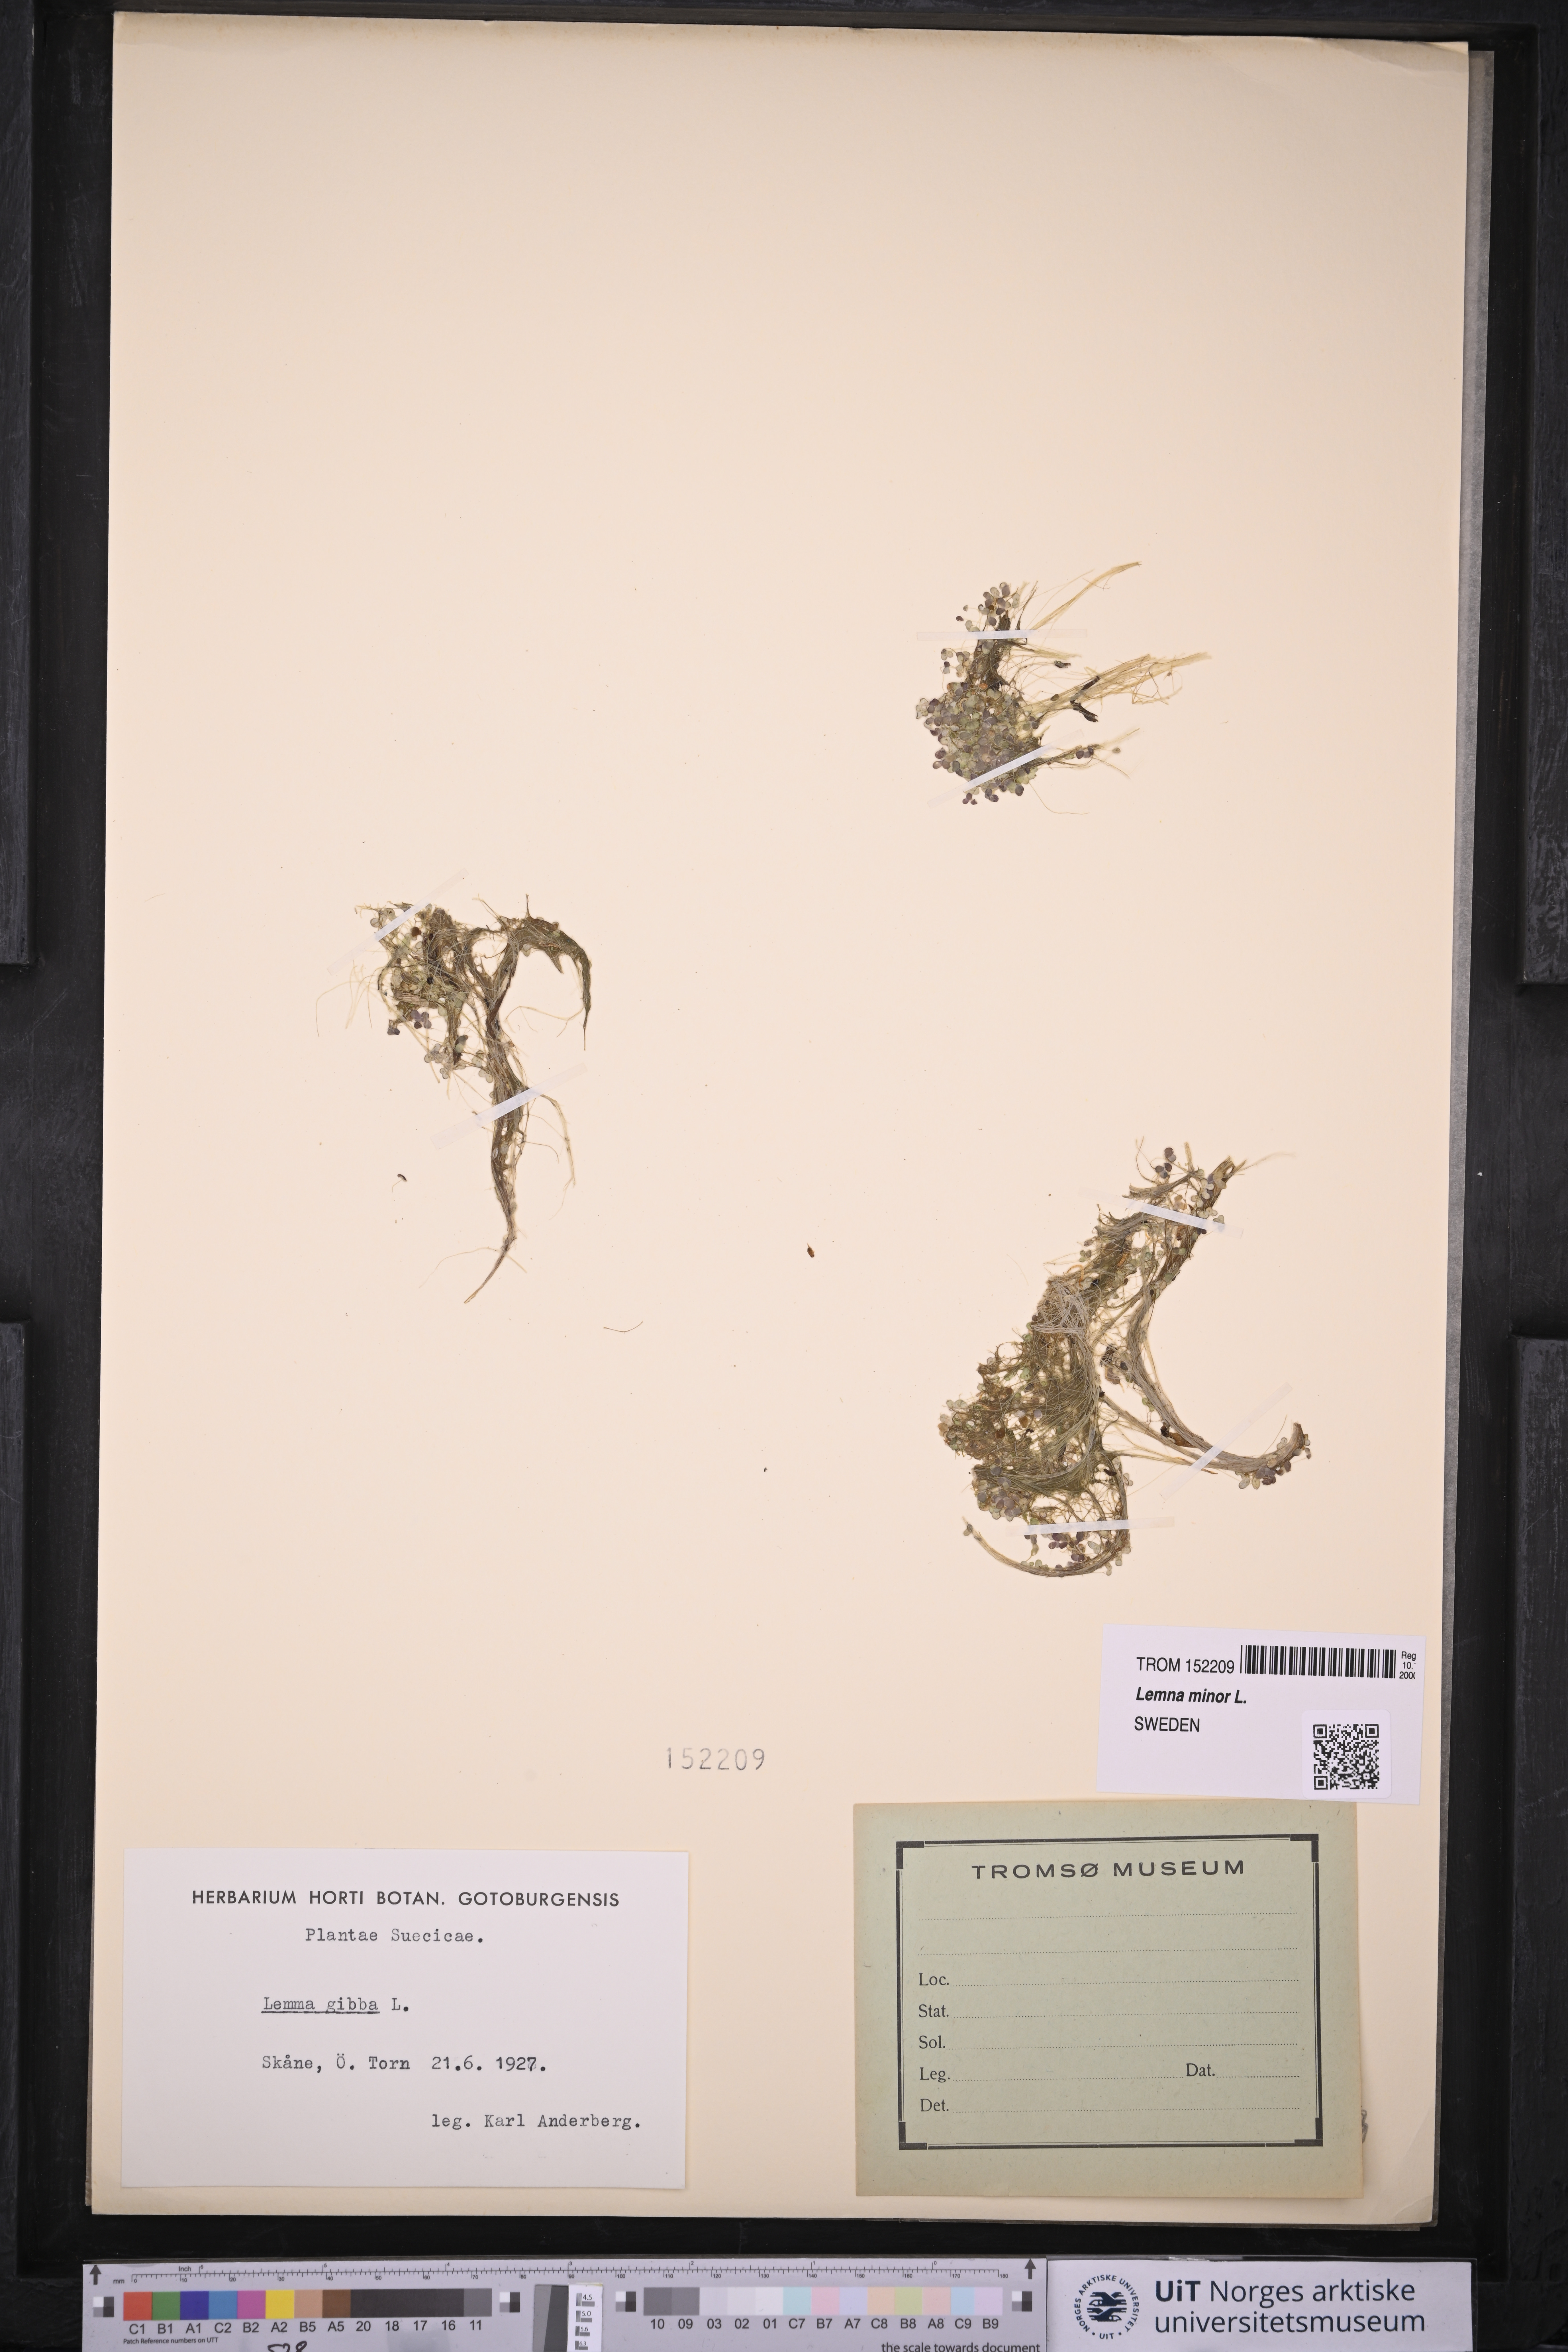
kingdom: Plantae
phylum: Tracheophyta
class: Liliopsida
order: Alismatales
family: Araceae
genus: Lemna
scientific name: Lemna minor
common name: Common duckweed
